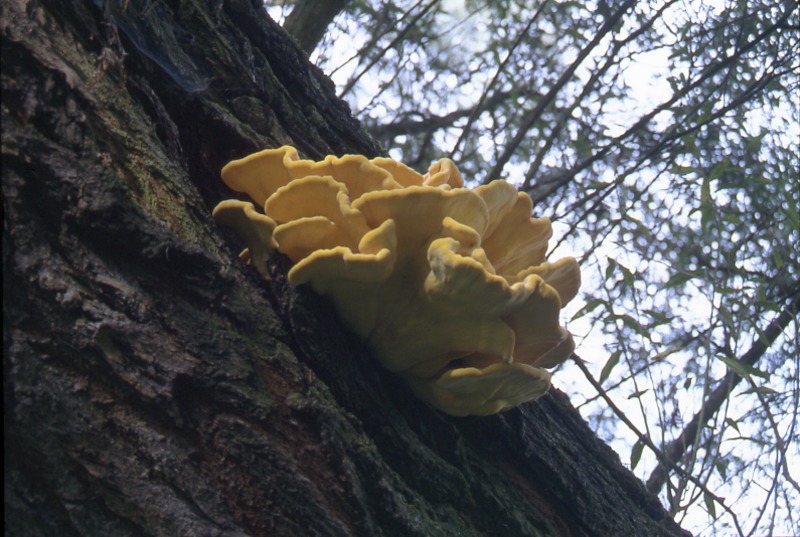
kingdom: Fungi
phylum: Basidiomycota
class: Agaricomycetes
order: Polyporales
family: Laetiporaceae
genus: Laetiporus
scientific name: Laetiporus sulphureus
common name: Chicken of the woods
